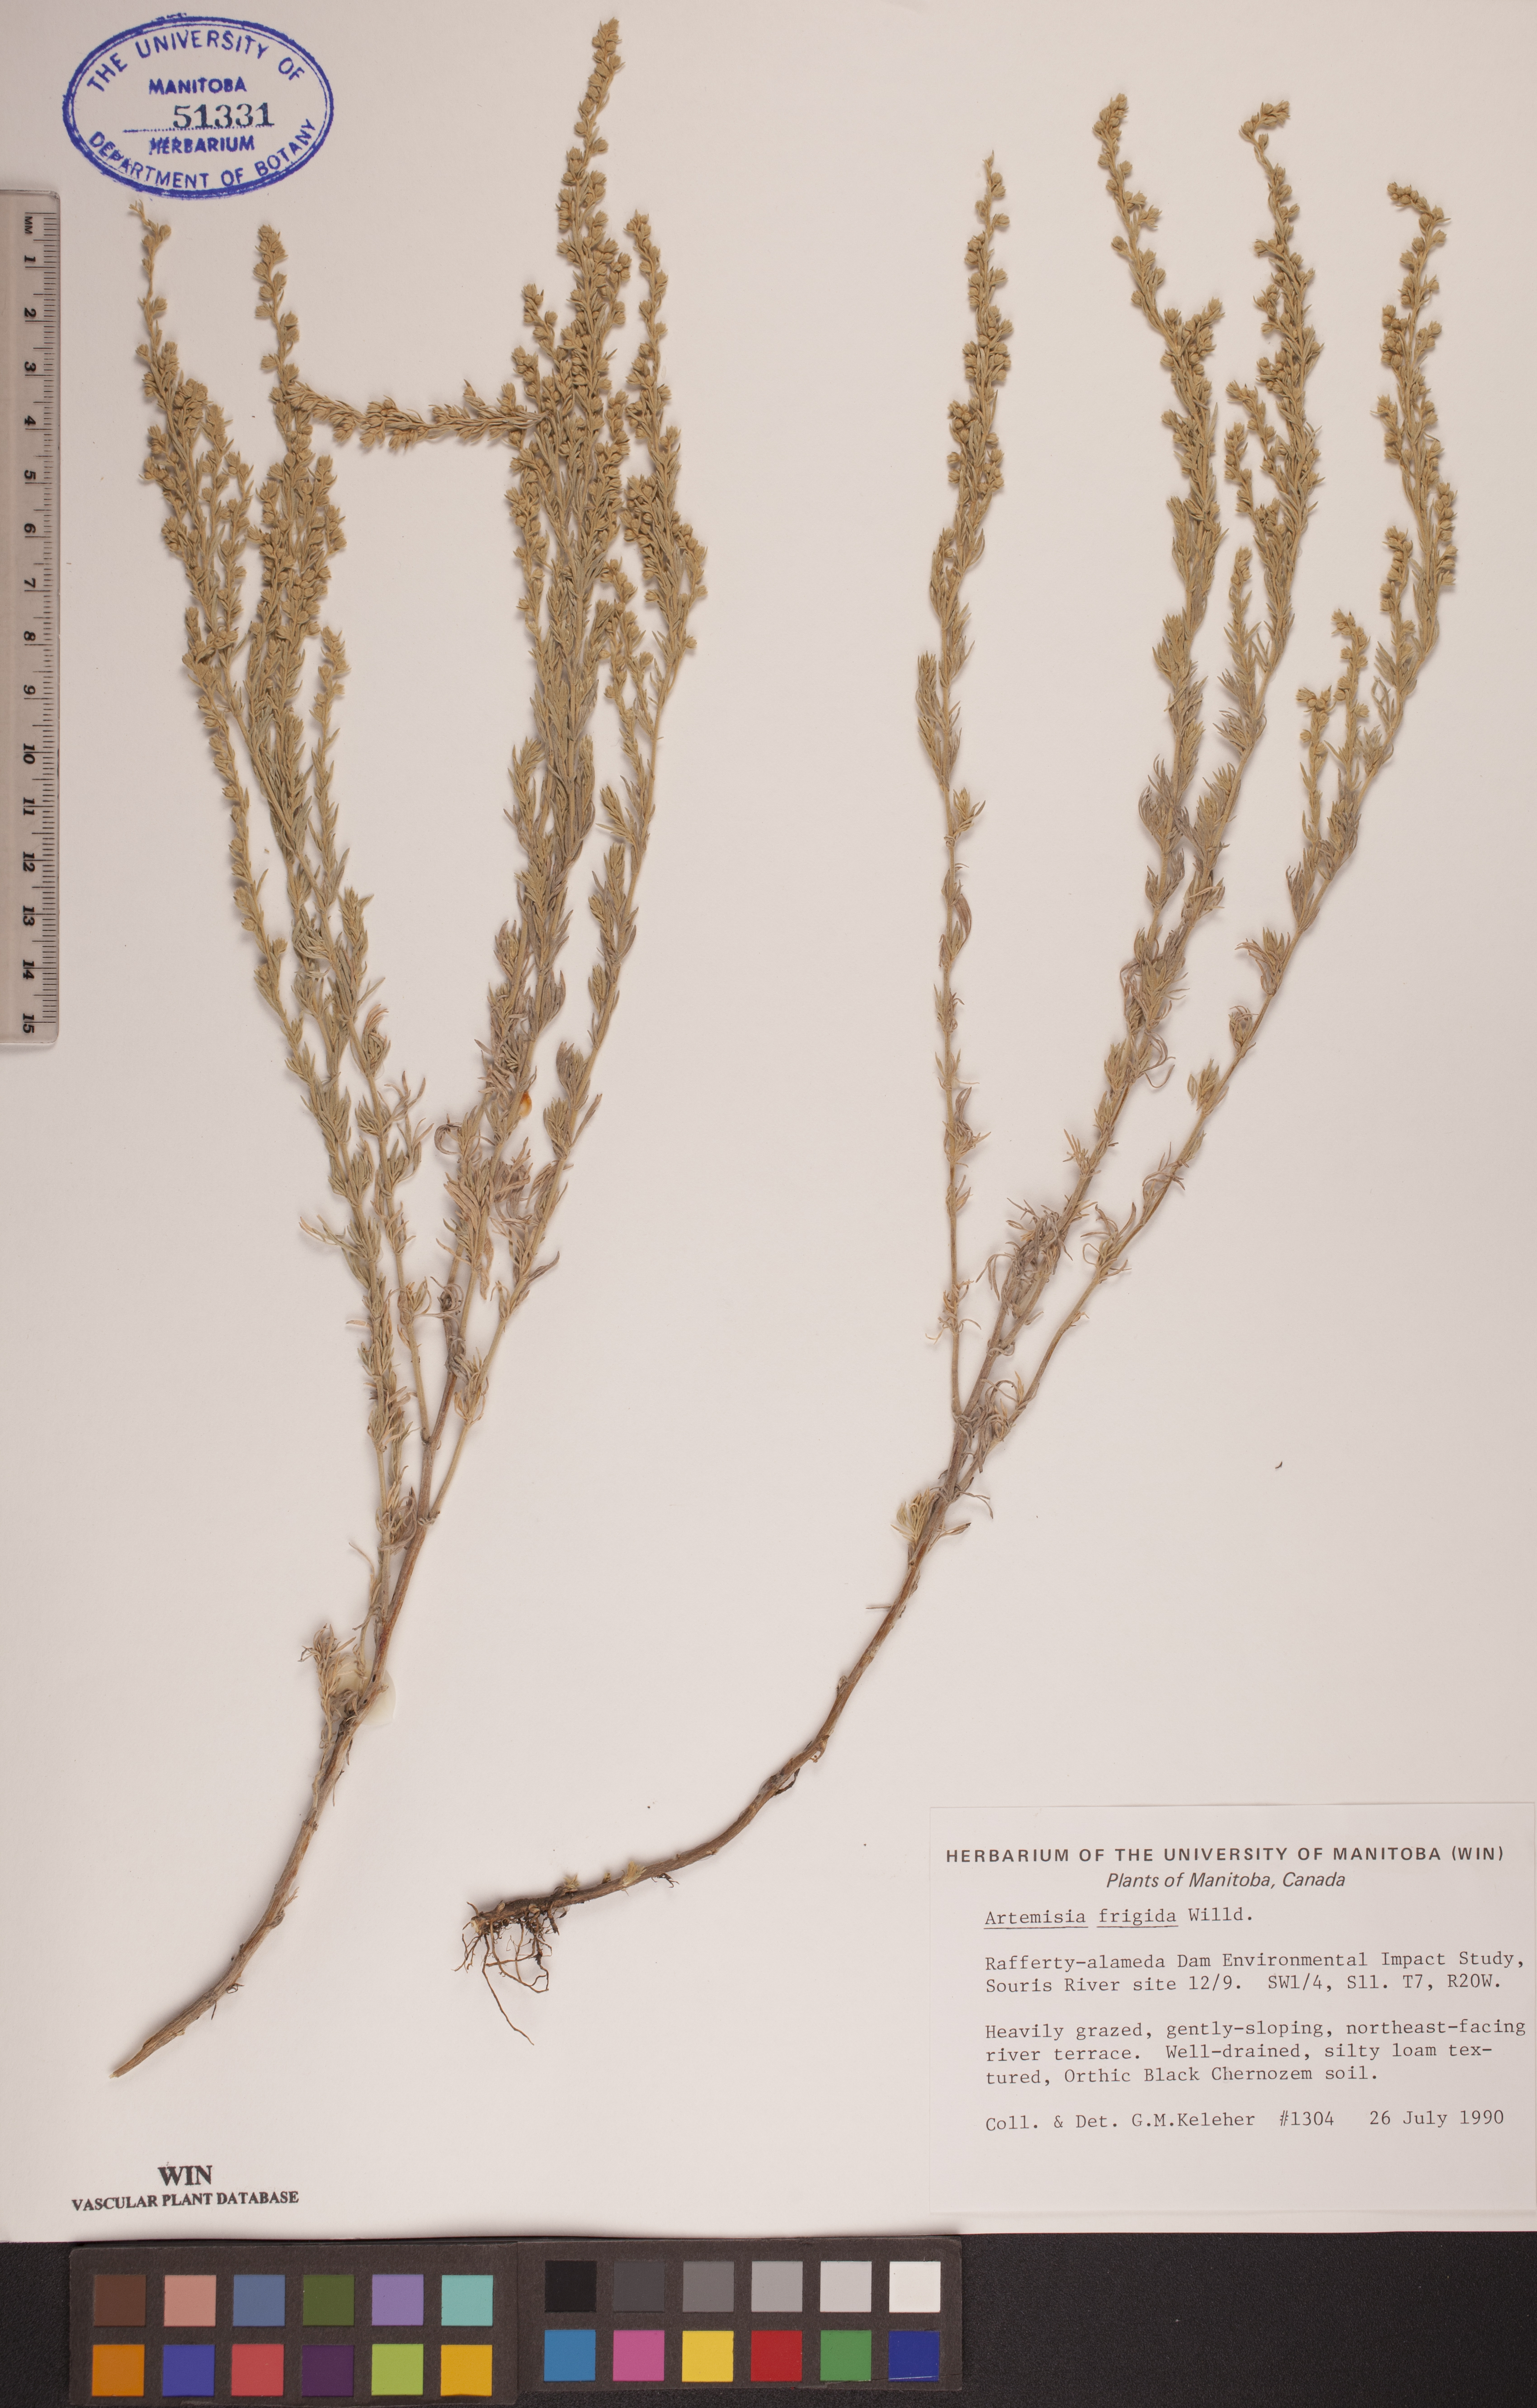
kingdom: Plantae
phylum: Tracheophyta
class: Magnoliopsida
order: Asterales
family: Asteraceae
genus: Artemisia
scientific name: Artemisia frigida
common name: Prairie sagewort
